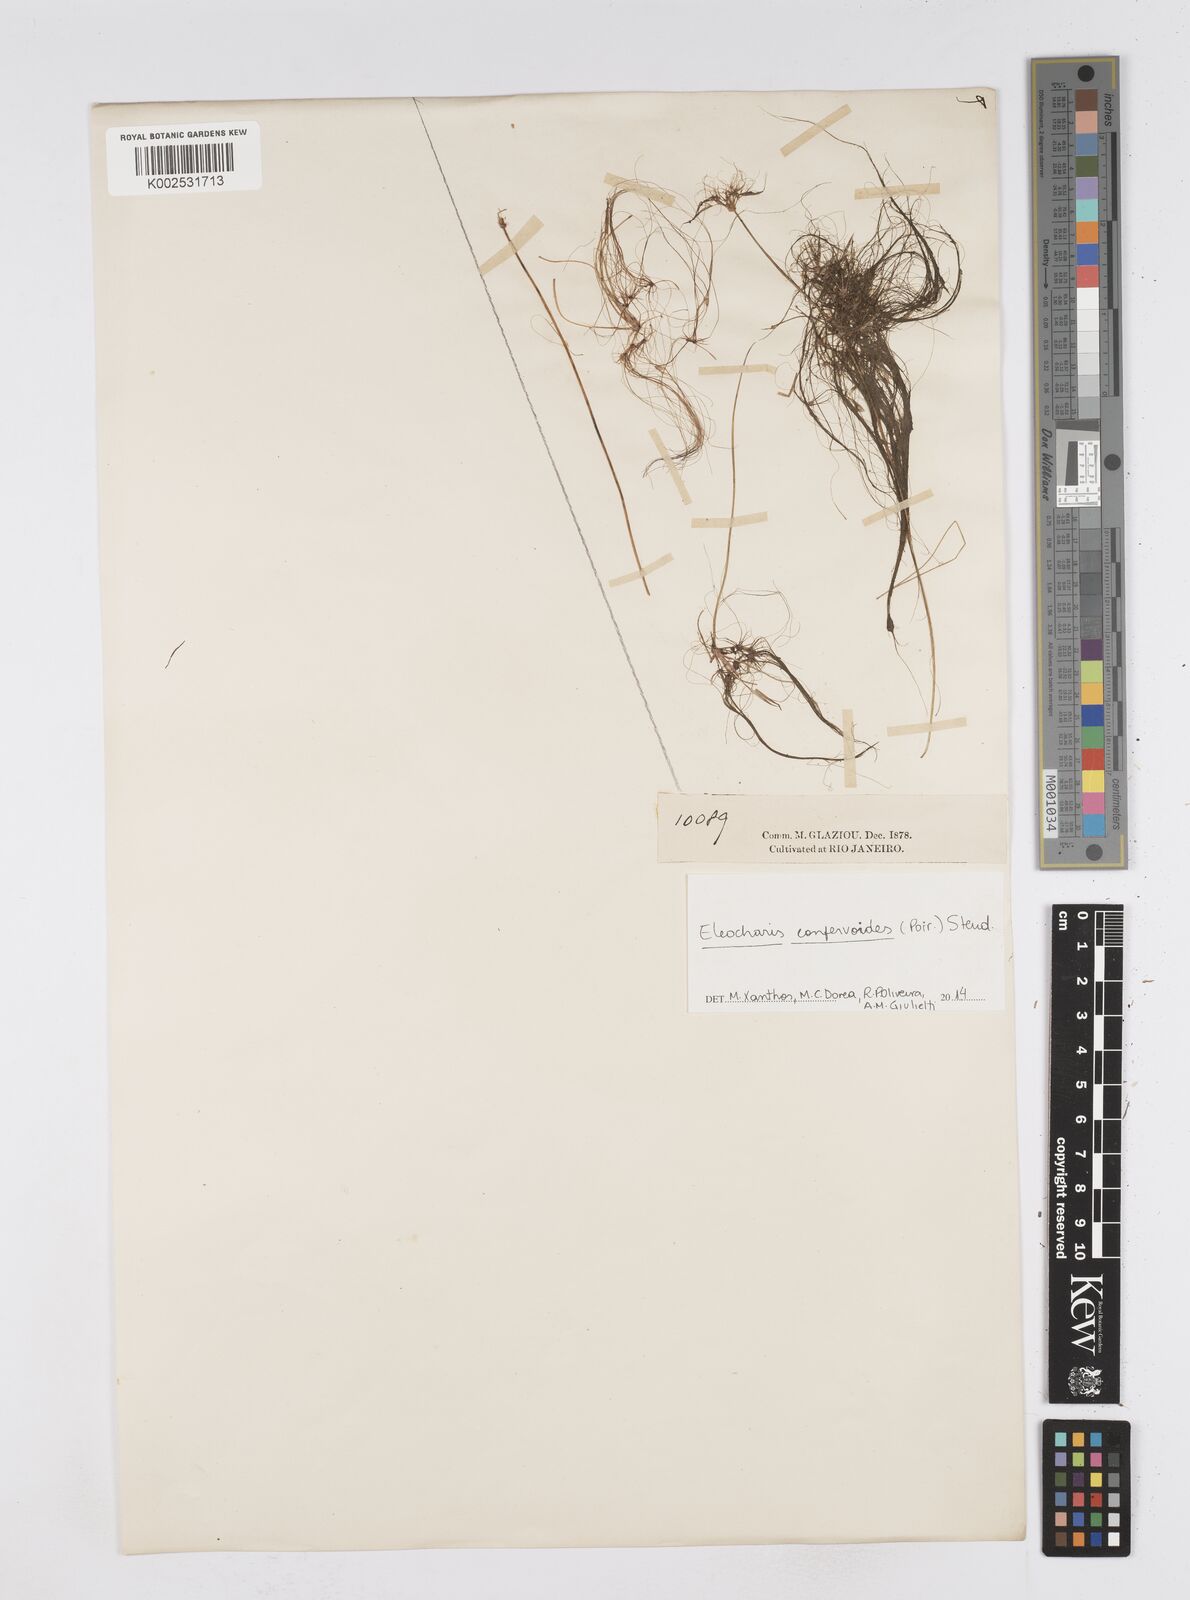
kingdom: Plantae
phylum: Tracheophyta
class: Liliopsida
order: Poales
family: Cyperaceae
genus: Eleocharis
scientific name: Eleocharis confervoides
